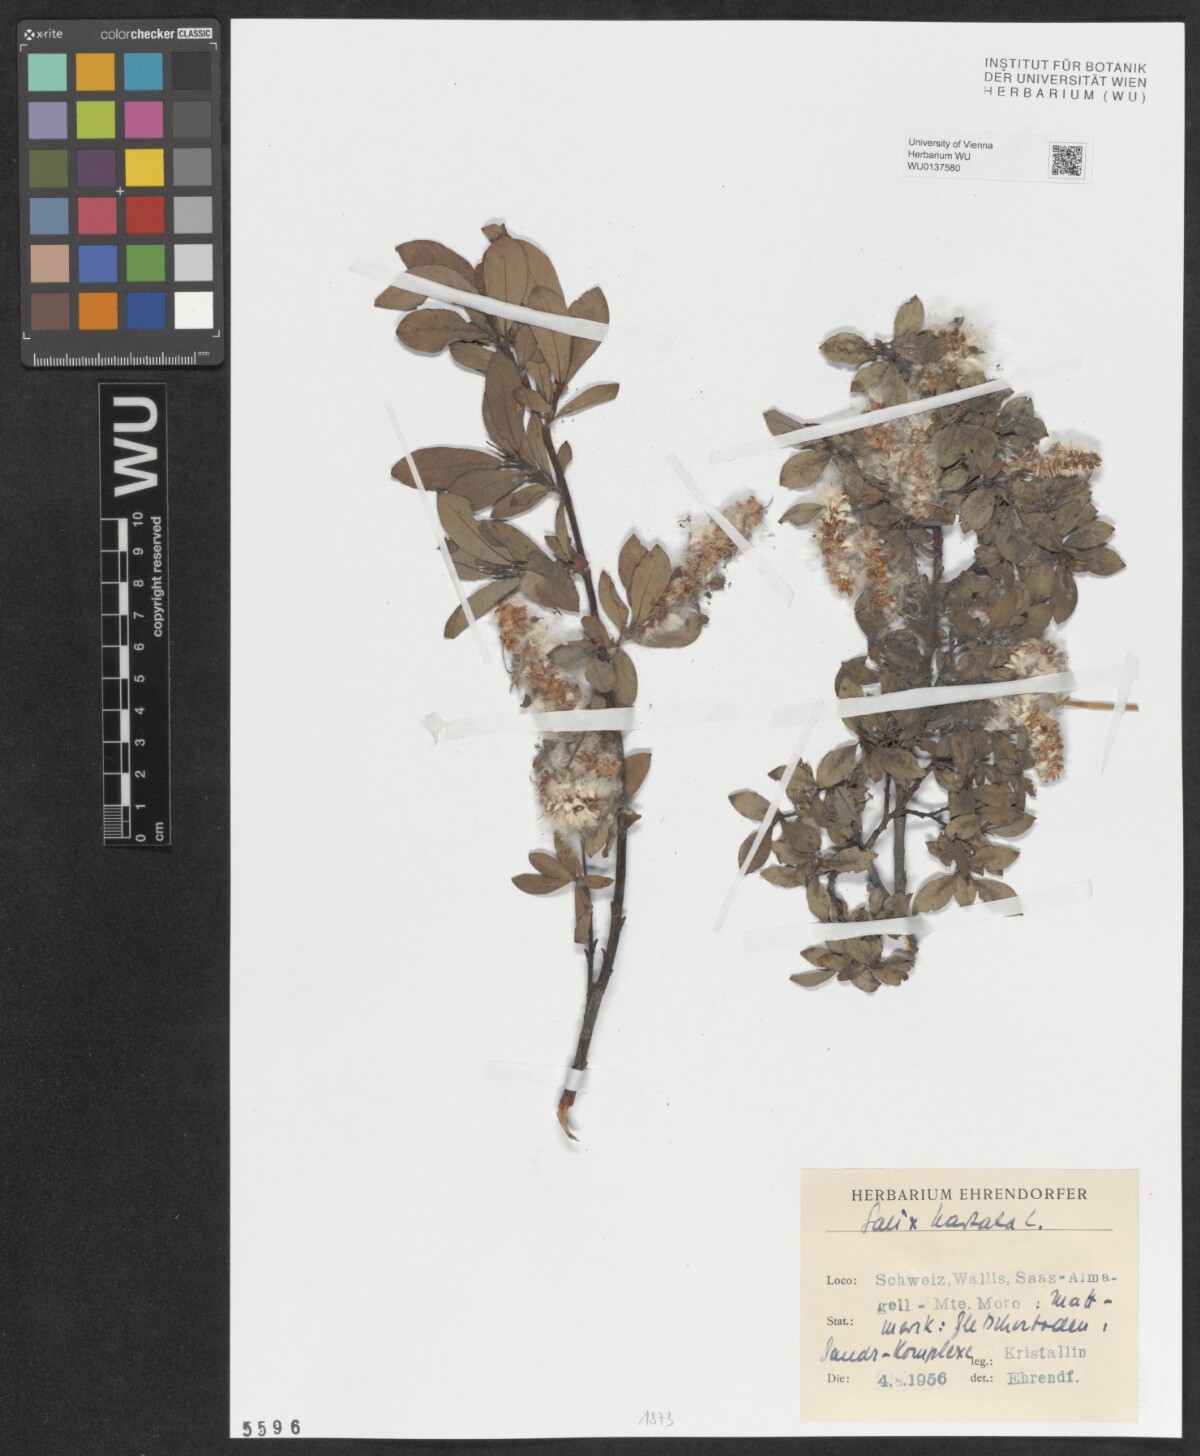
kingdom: Plantae
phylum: Tracheophyta
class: Magnoliopsida
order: Malpighiales
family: Salicaceae
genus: Salix
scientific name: Salix hastata
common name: Halberd willow
